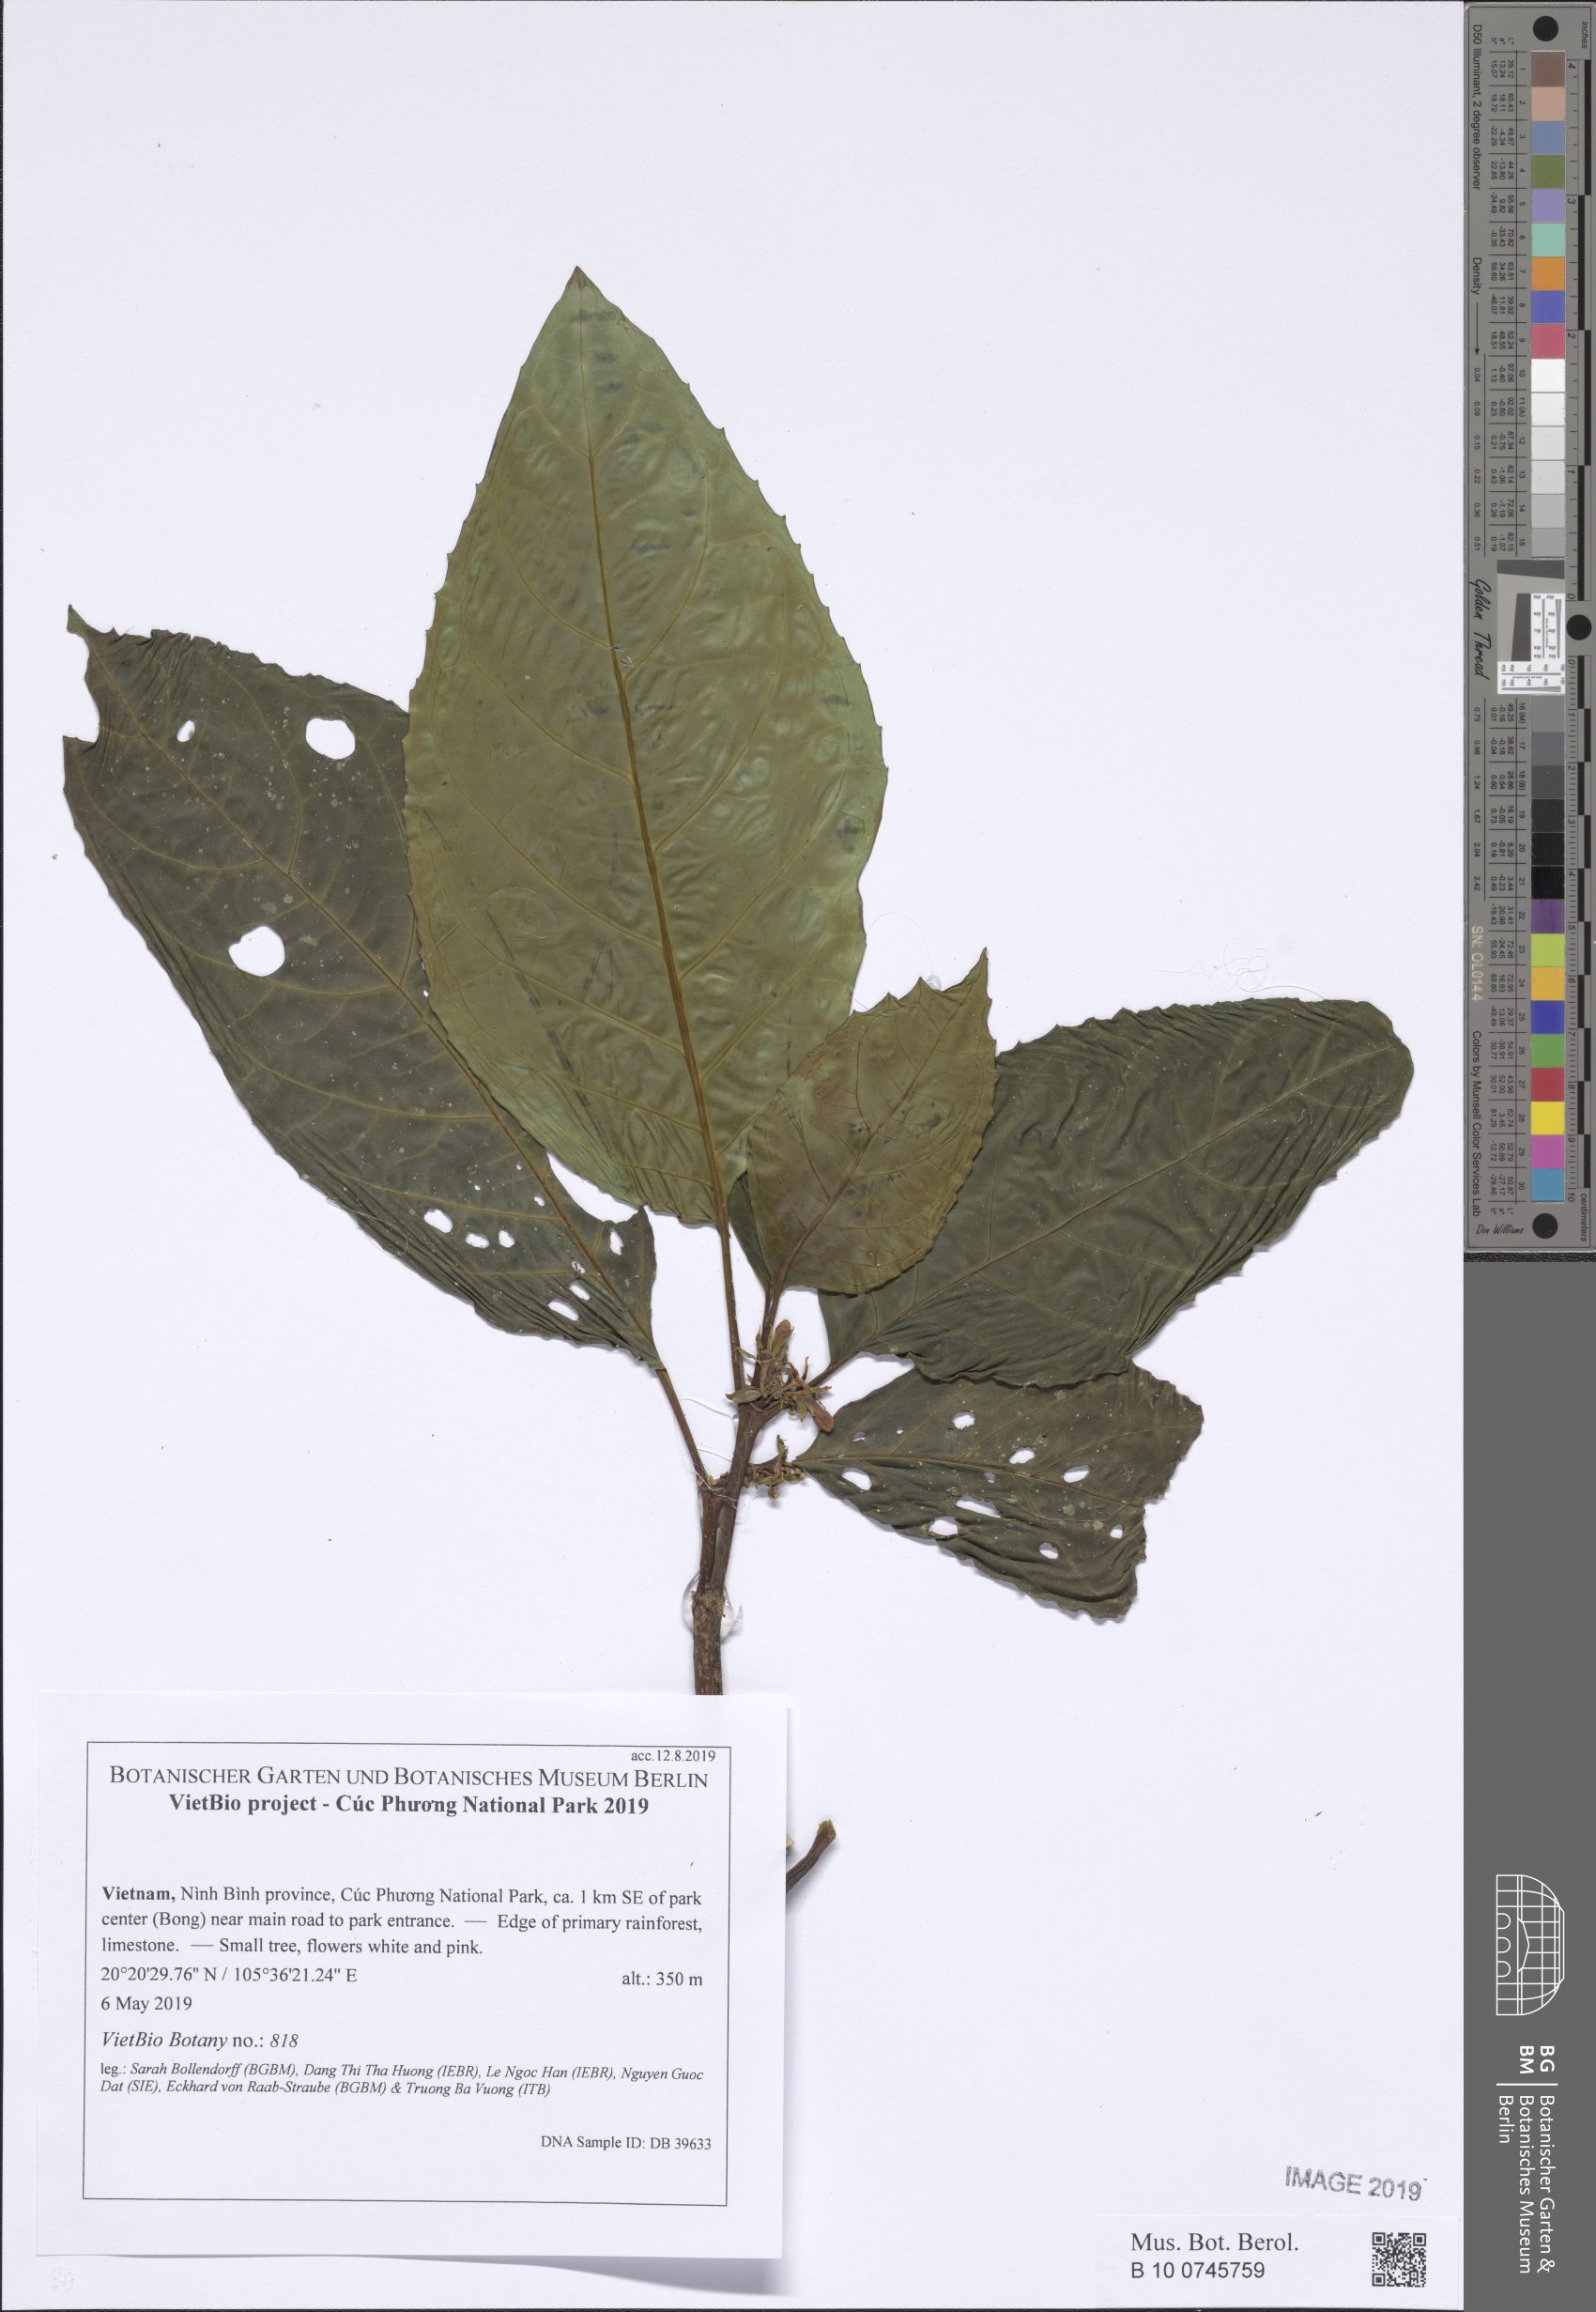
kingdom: Plantae
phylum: Tracheophyta
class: Magnoliopsida
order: Lamiales
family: Lamiaceae
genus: Clerodendrum
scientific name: Clerodendrum
